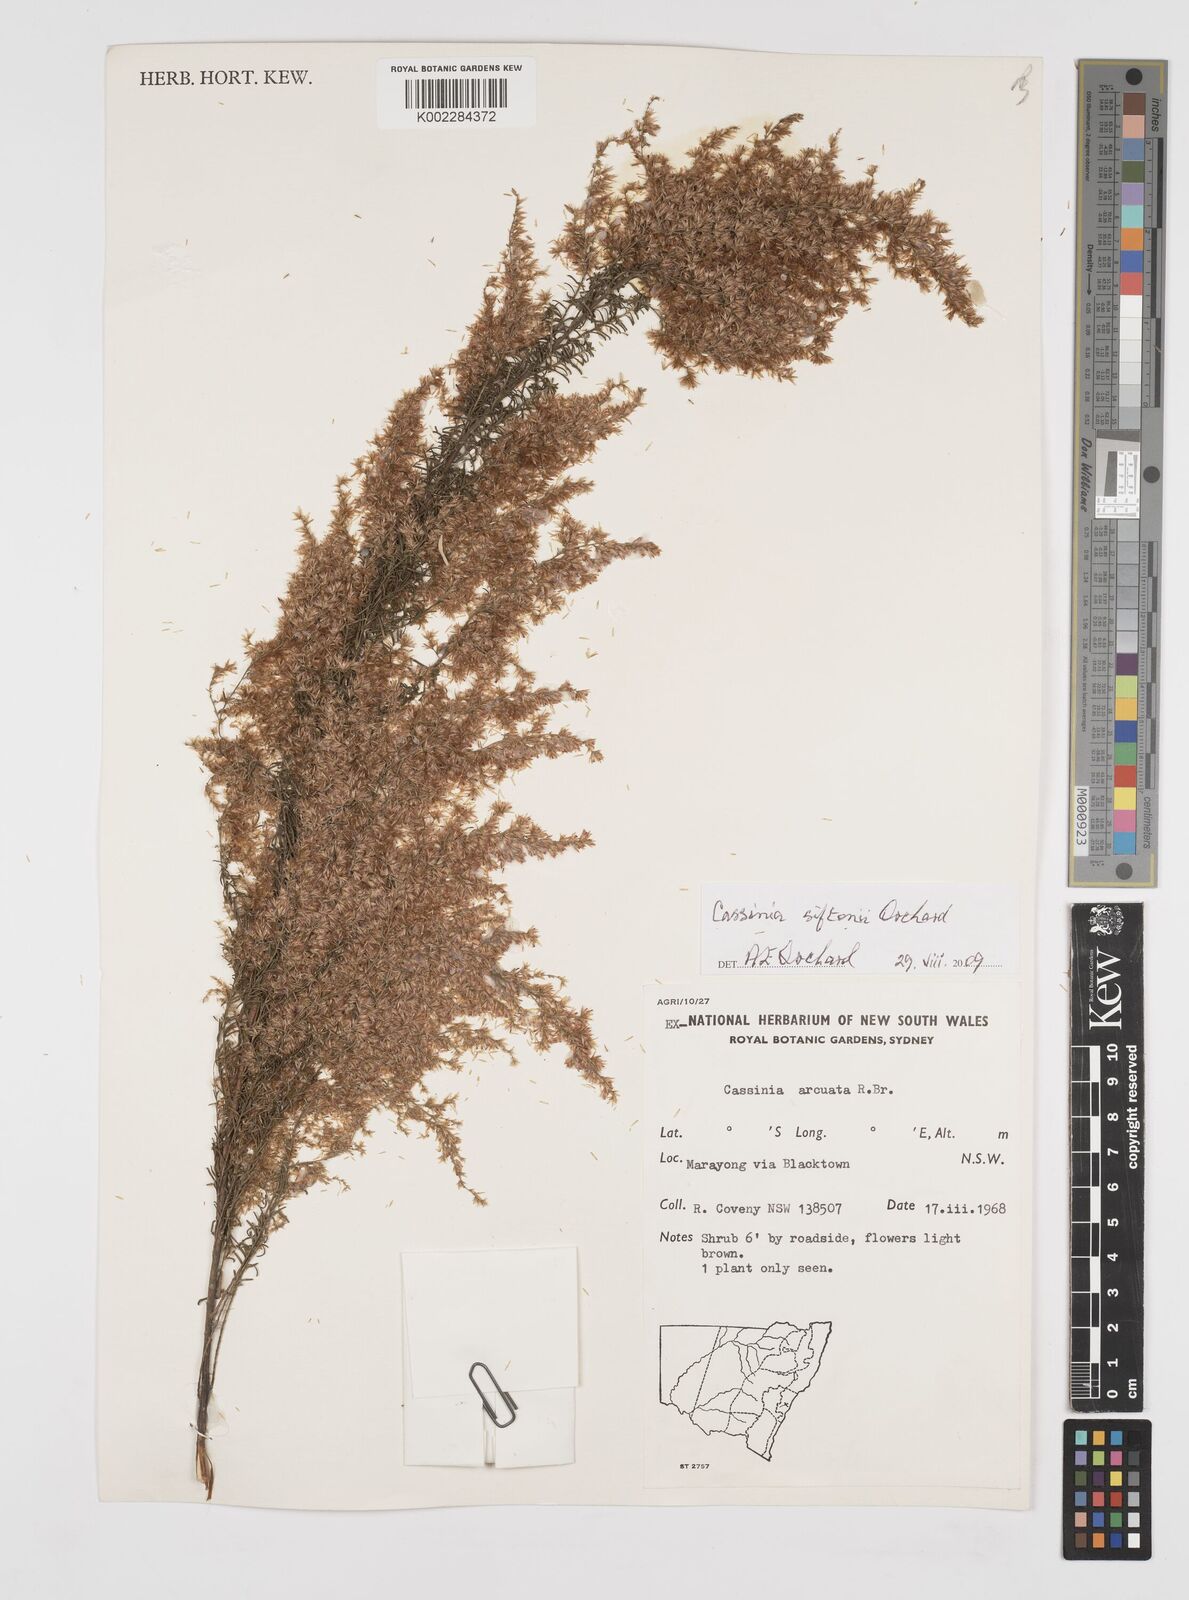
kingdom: Plantae
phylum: Tracheophyta
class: Magnoliopsida
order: Asterales
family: Asteraceae
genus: Cassinia
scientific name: Cassinia arcuata
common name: Chineseshrub
